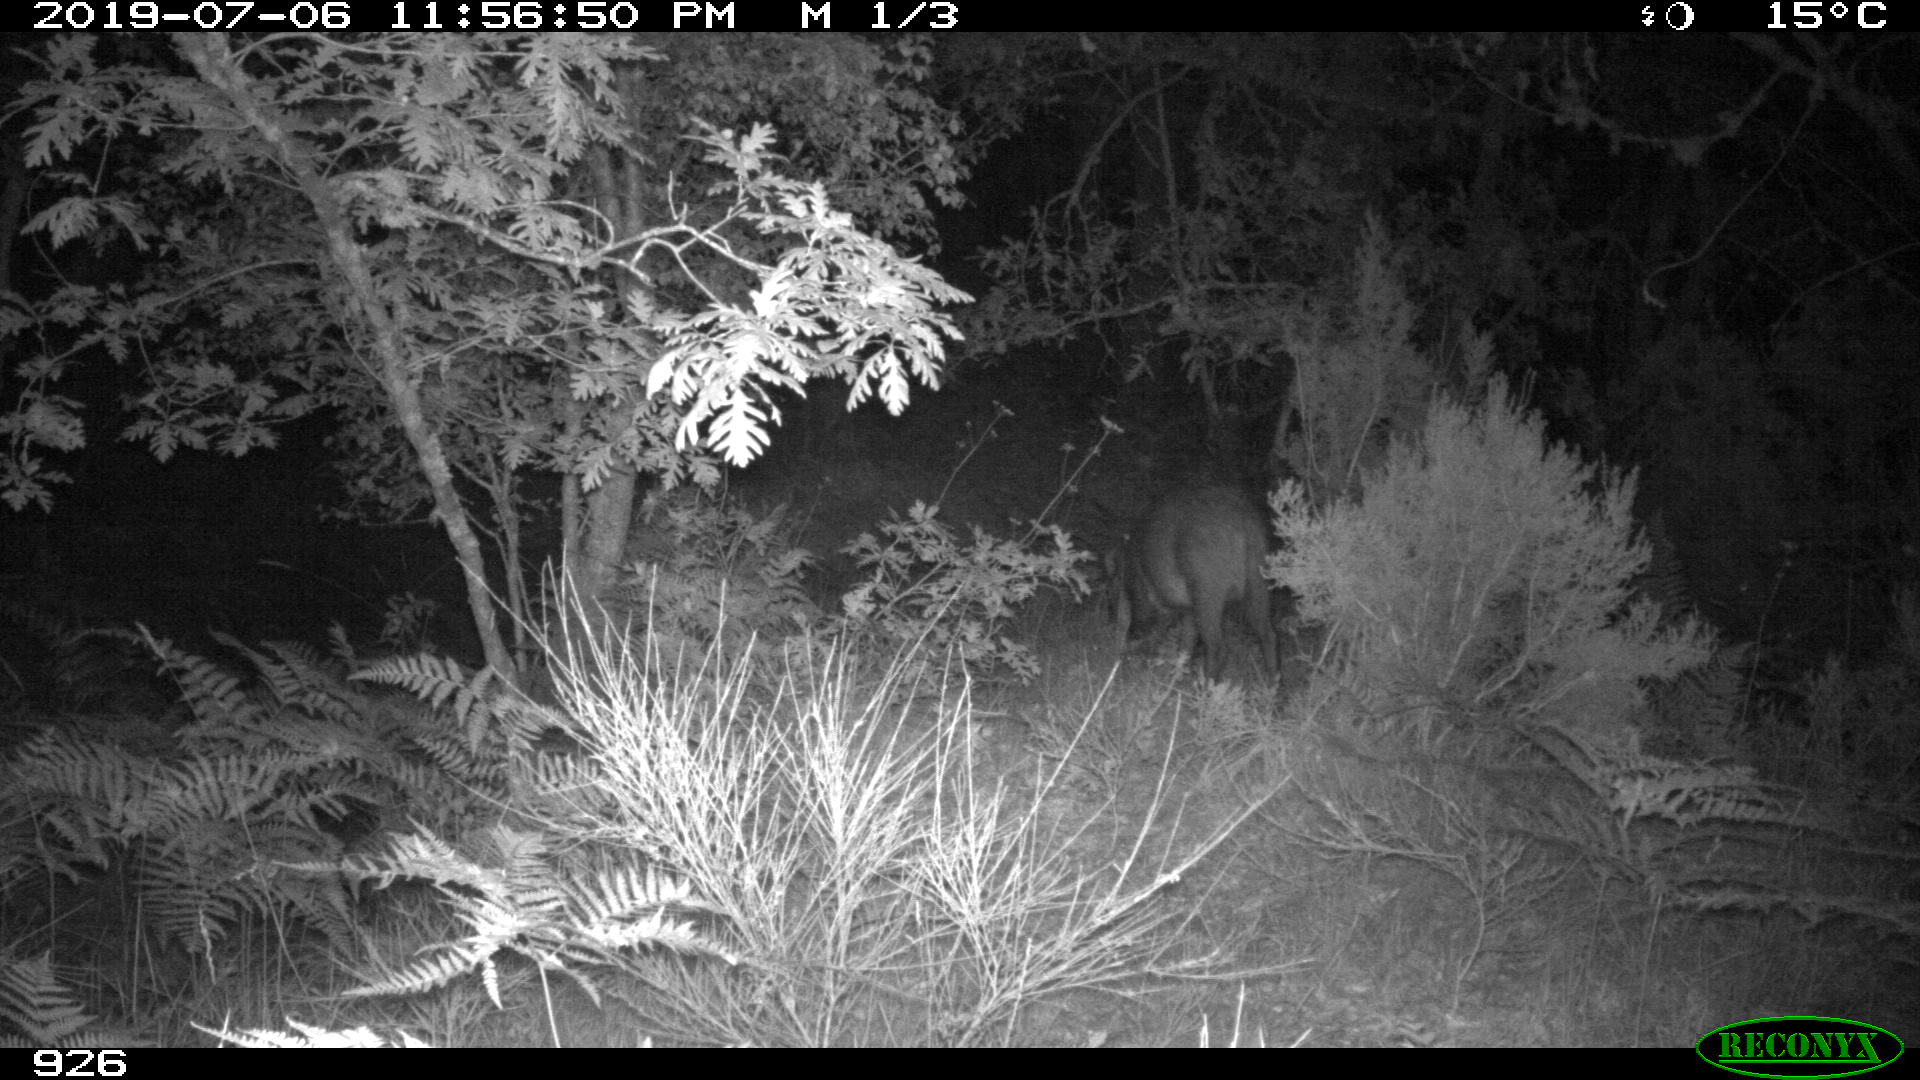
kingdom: Animalia
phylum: Chordata
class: Mammalia
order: Artiodactyla
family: Suidae
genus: Sus
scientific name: Sus scrofa
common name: Wild boar
